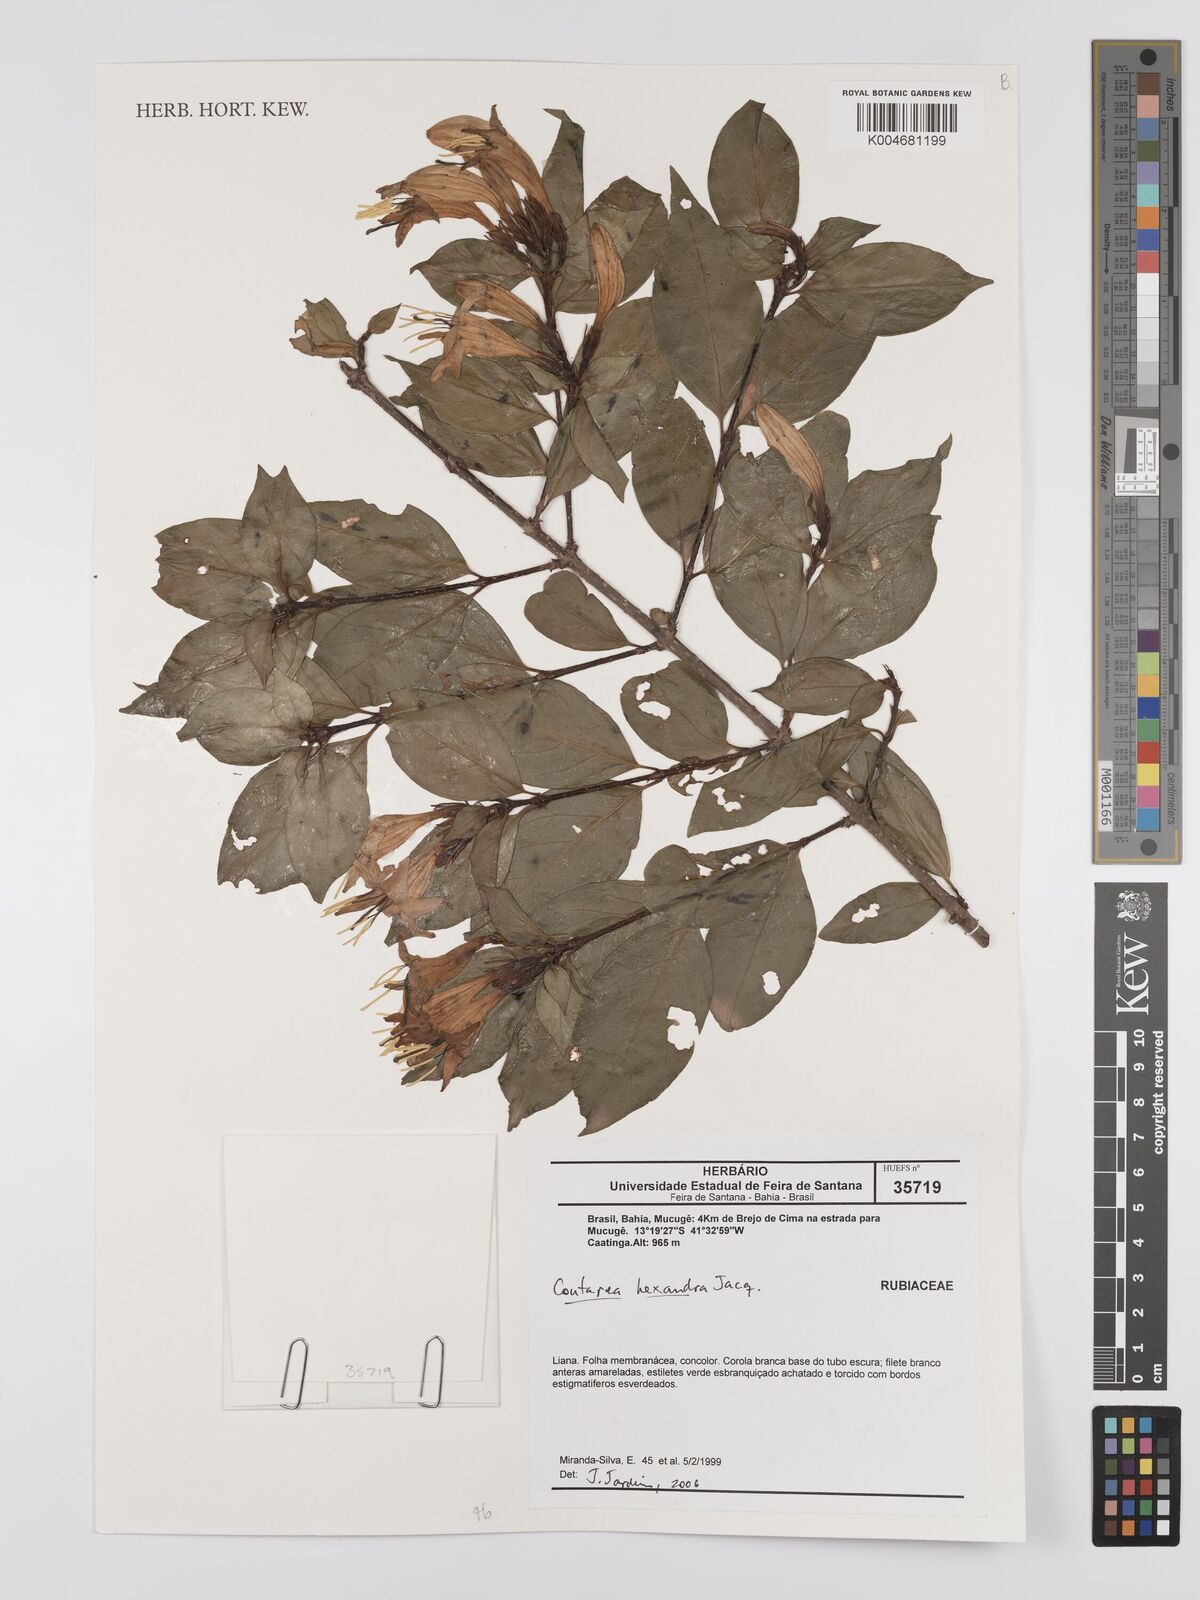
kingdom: Plantae
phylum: Tracheophyta
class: Magnoliopsida
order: Gentianales
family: Rubiaceae
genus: Coutarea
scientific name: Coutarea hexandra
